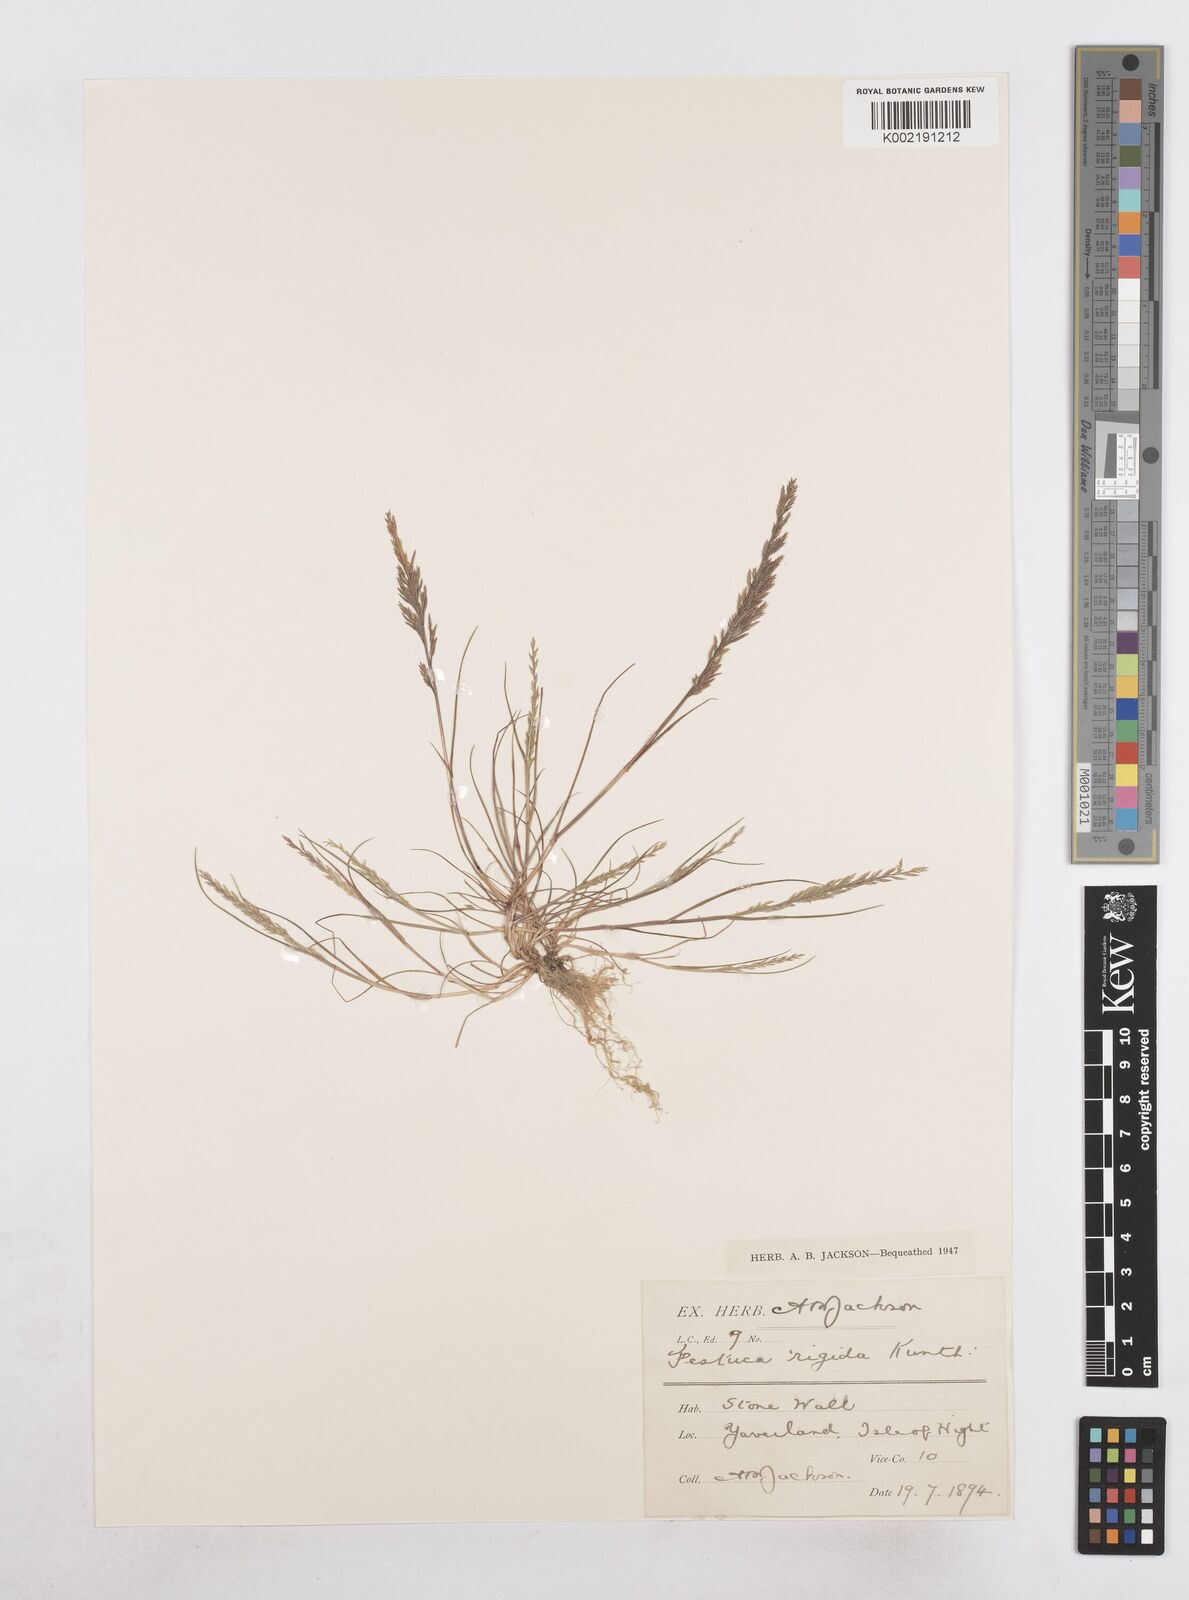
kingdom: Plantae
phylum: Tracheophyta
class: Liliopsida
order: Poales
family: Poaceae
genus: Catapodium
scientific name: Catapodium rigidum
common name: Fern-grass
